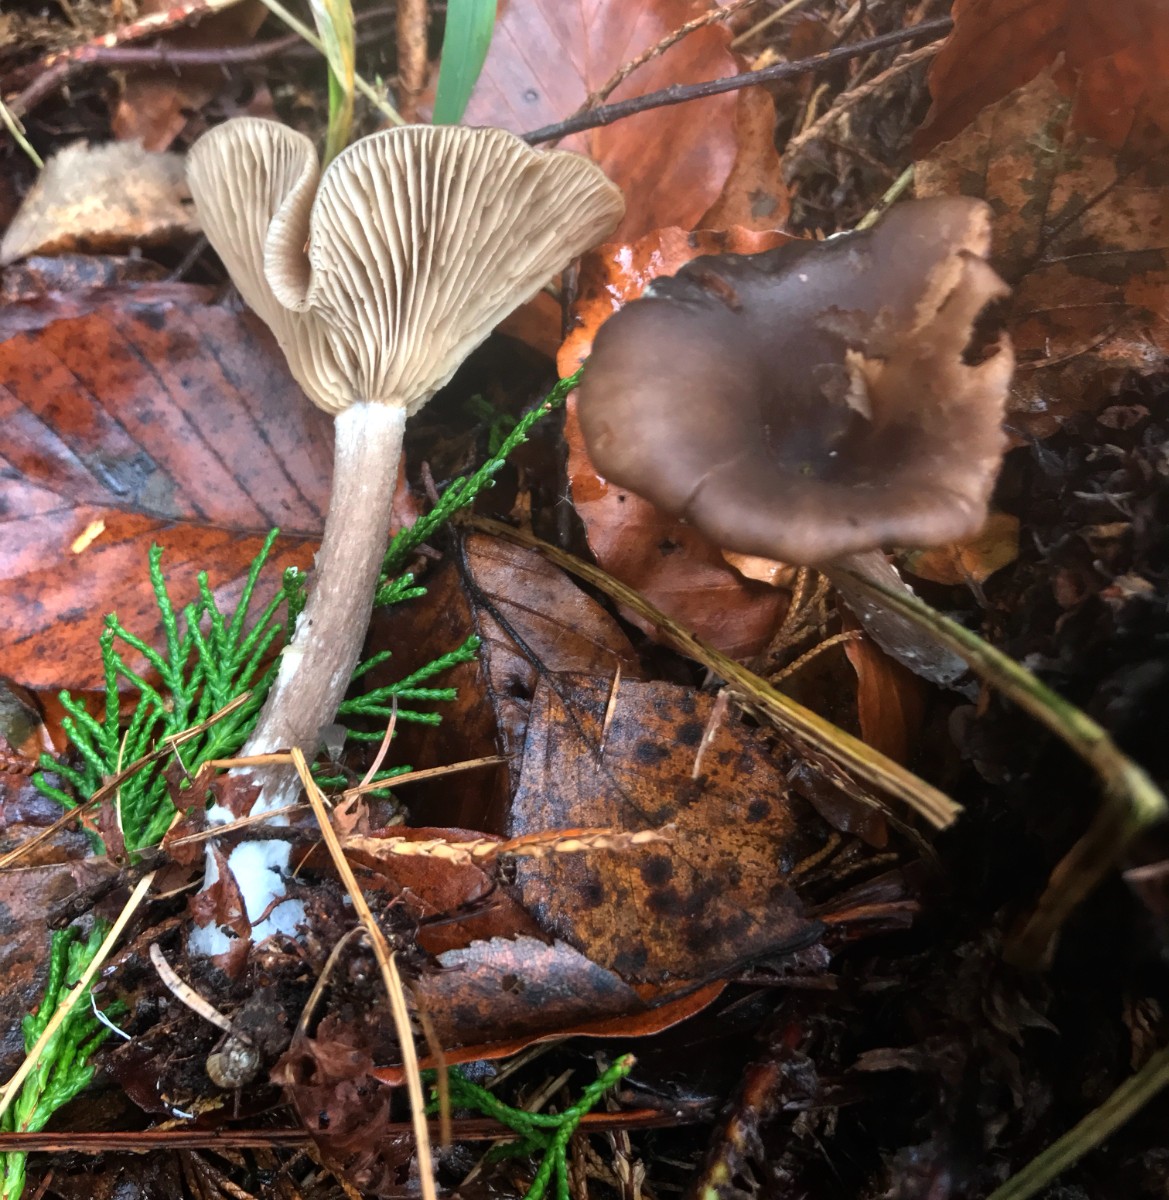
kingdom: Fungi
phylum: Basidiomycota
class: Agaricomycetes
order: Agaricales
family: Pseudoclitocybaceae
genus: Pseudoclitocybe
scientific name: Pseudoclitocybe cyathiformis
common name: almindelig bægertragthat
